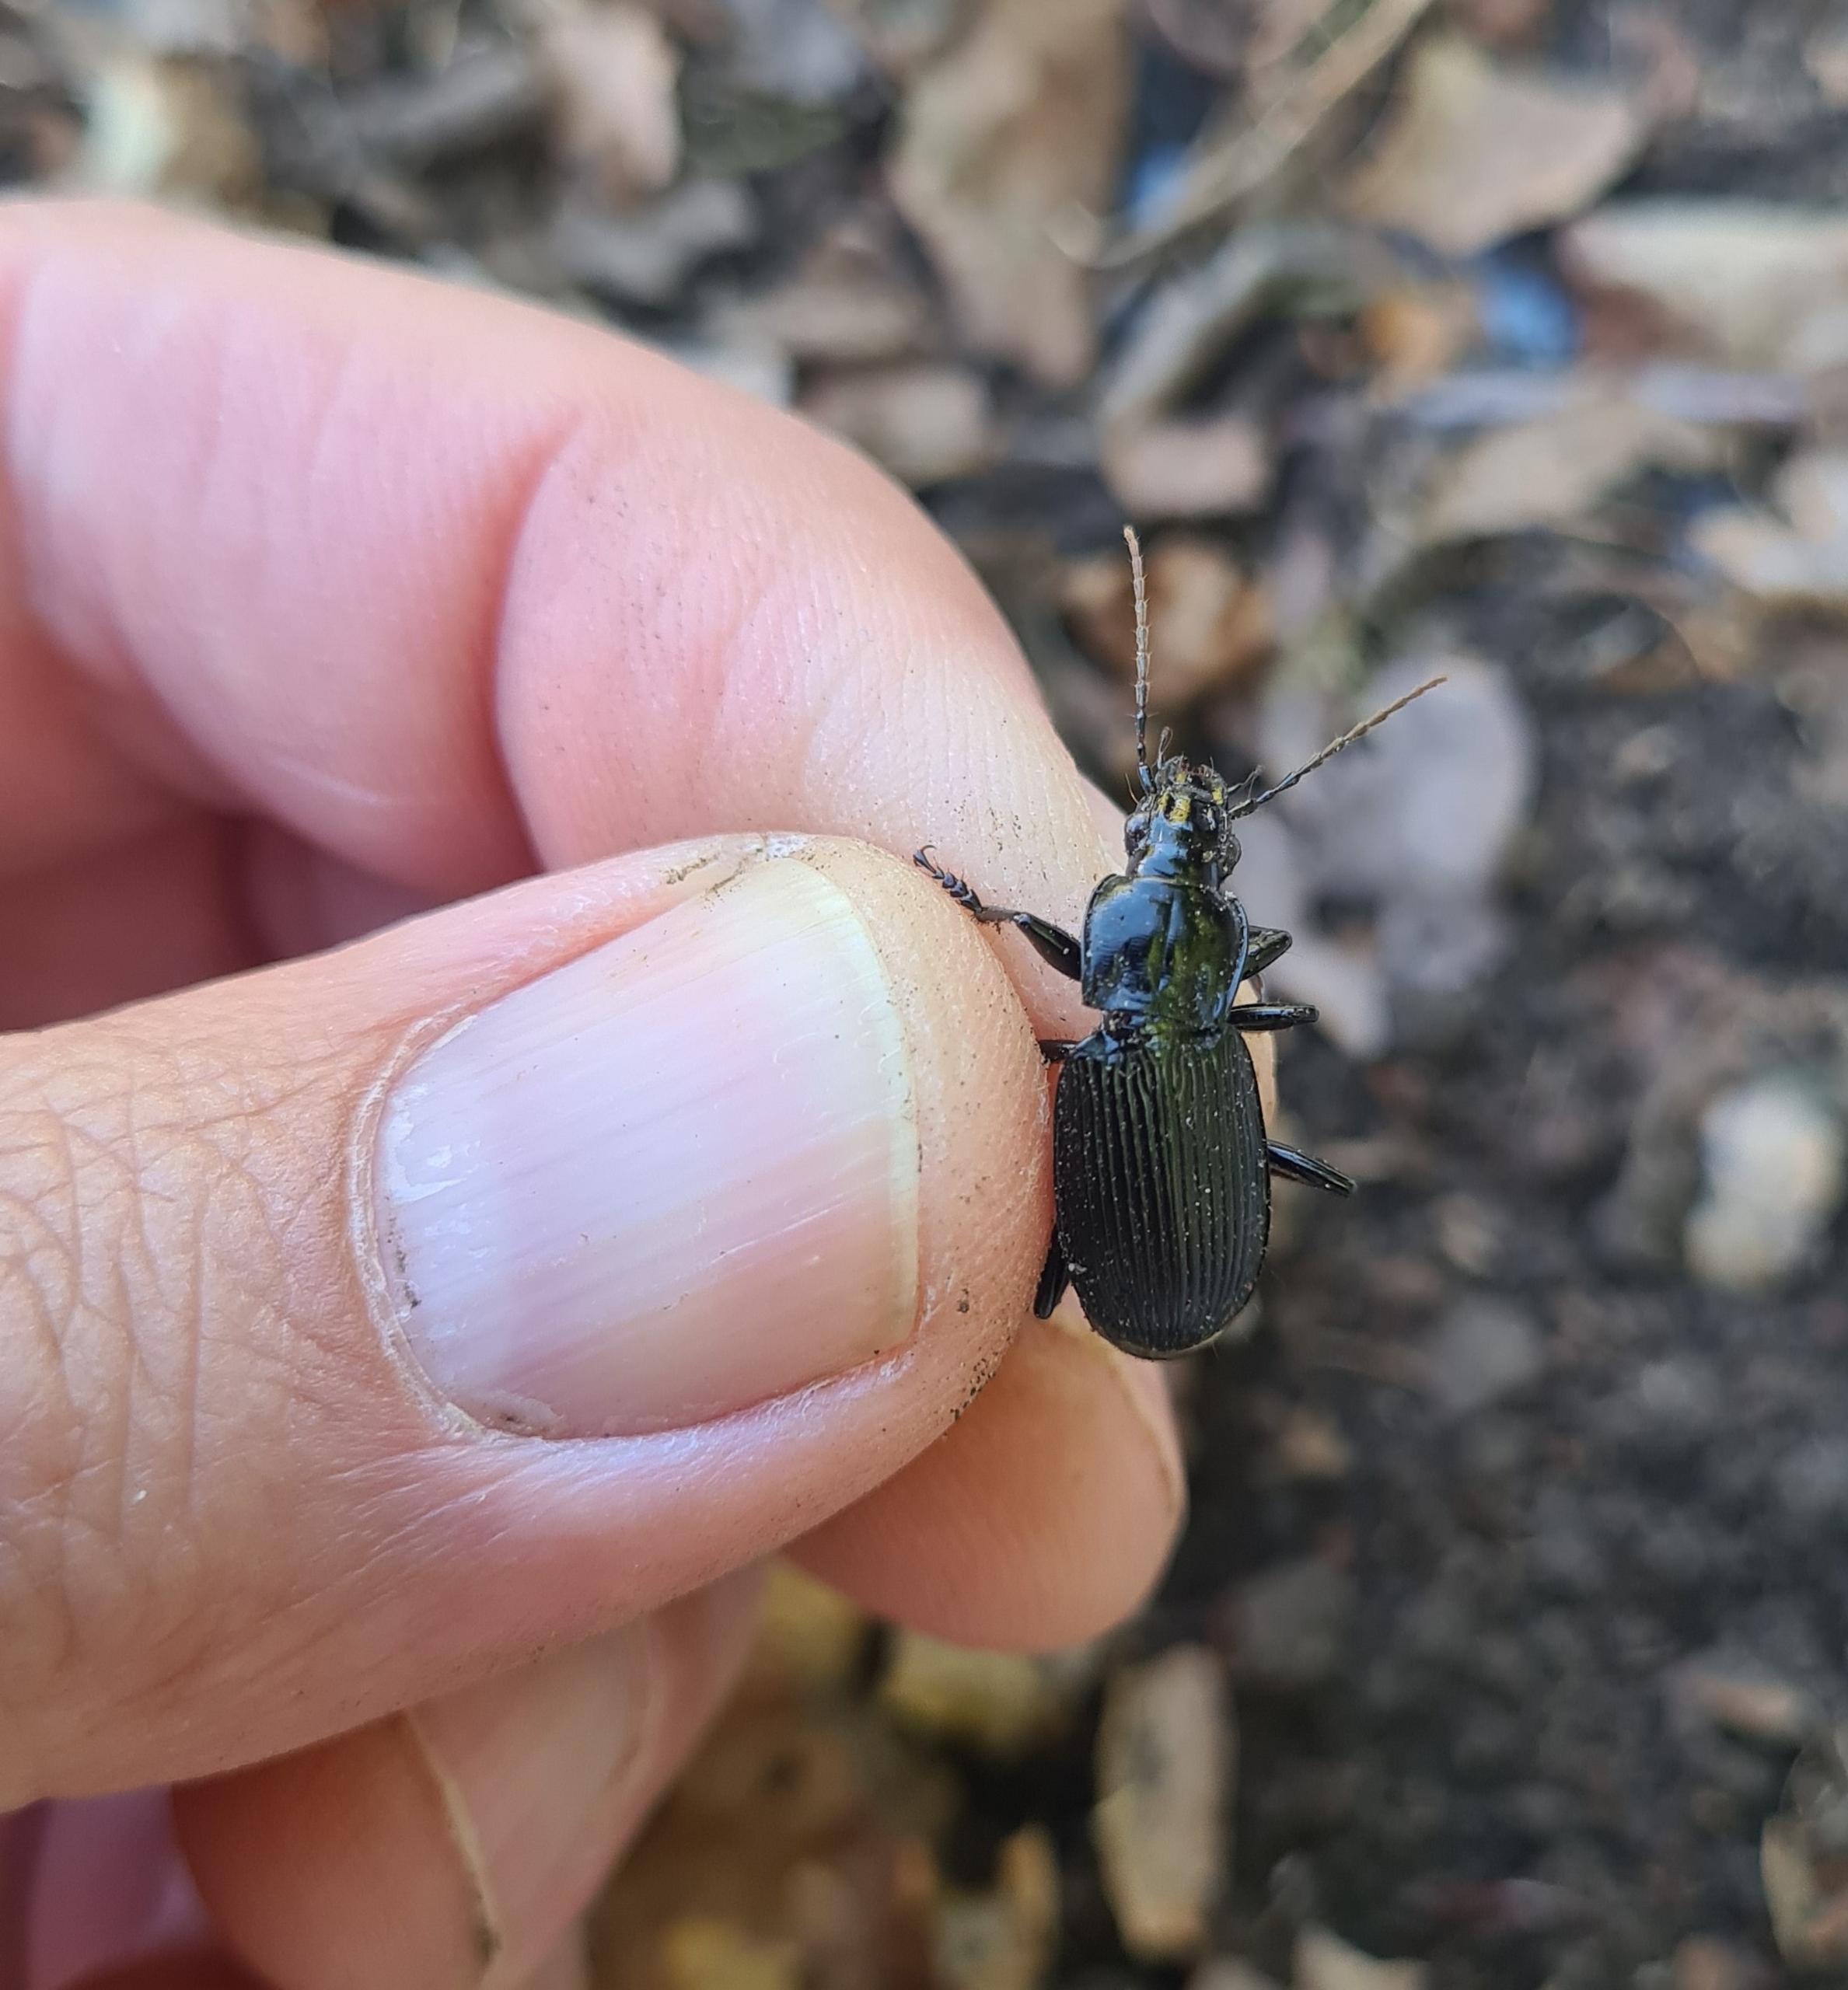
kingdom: Animalia
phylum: Arthropoda
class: Insecta
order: Coleoptera
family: Carabidae
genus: Pterostichus
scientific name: Pterostichus niger
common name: Skovjordløber
